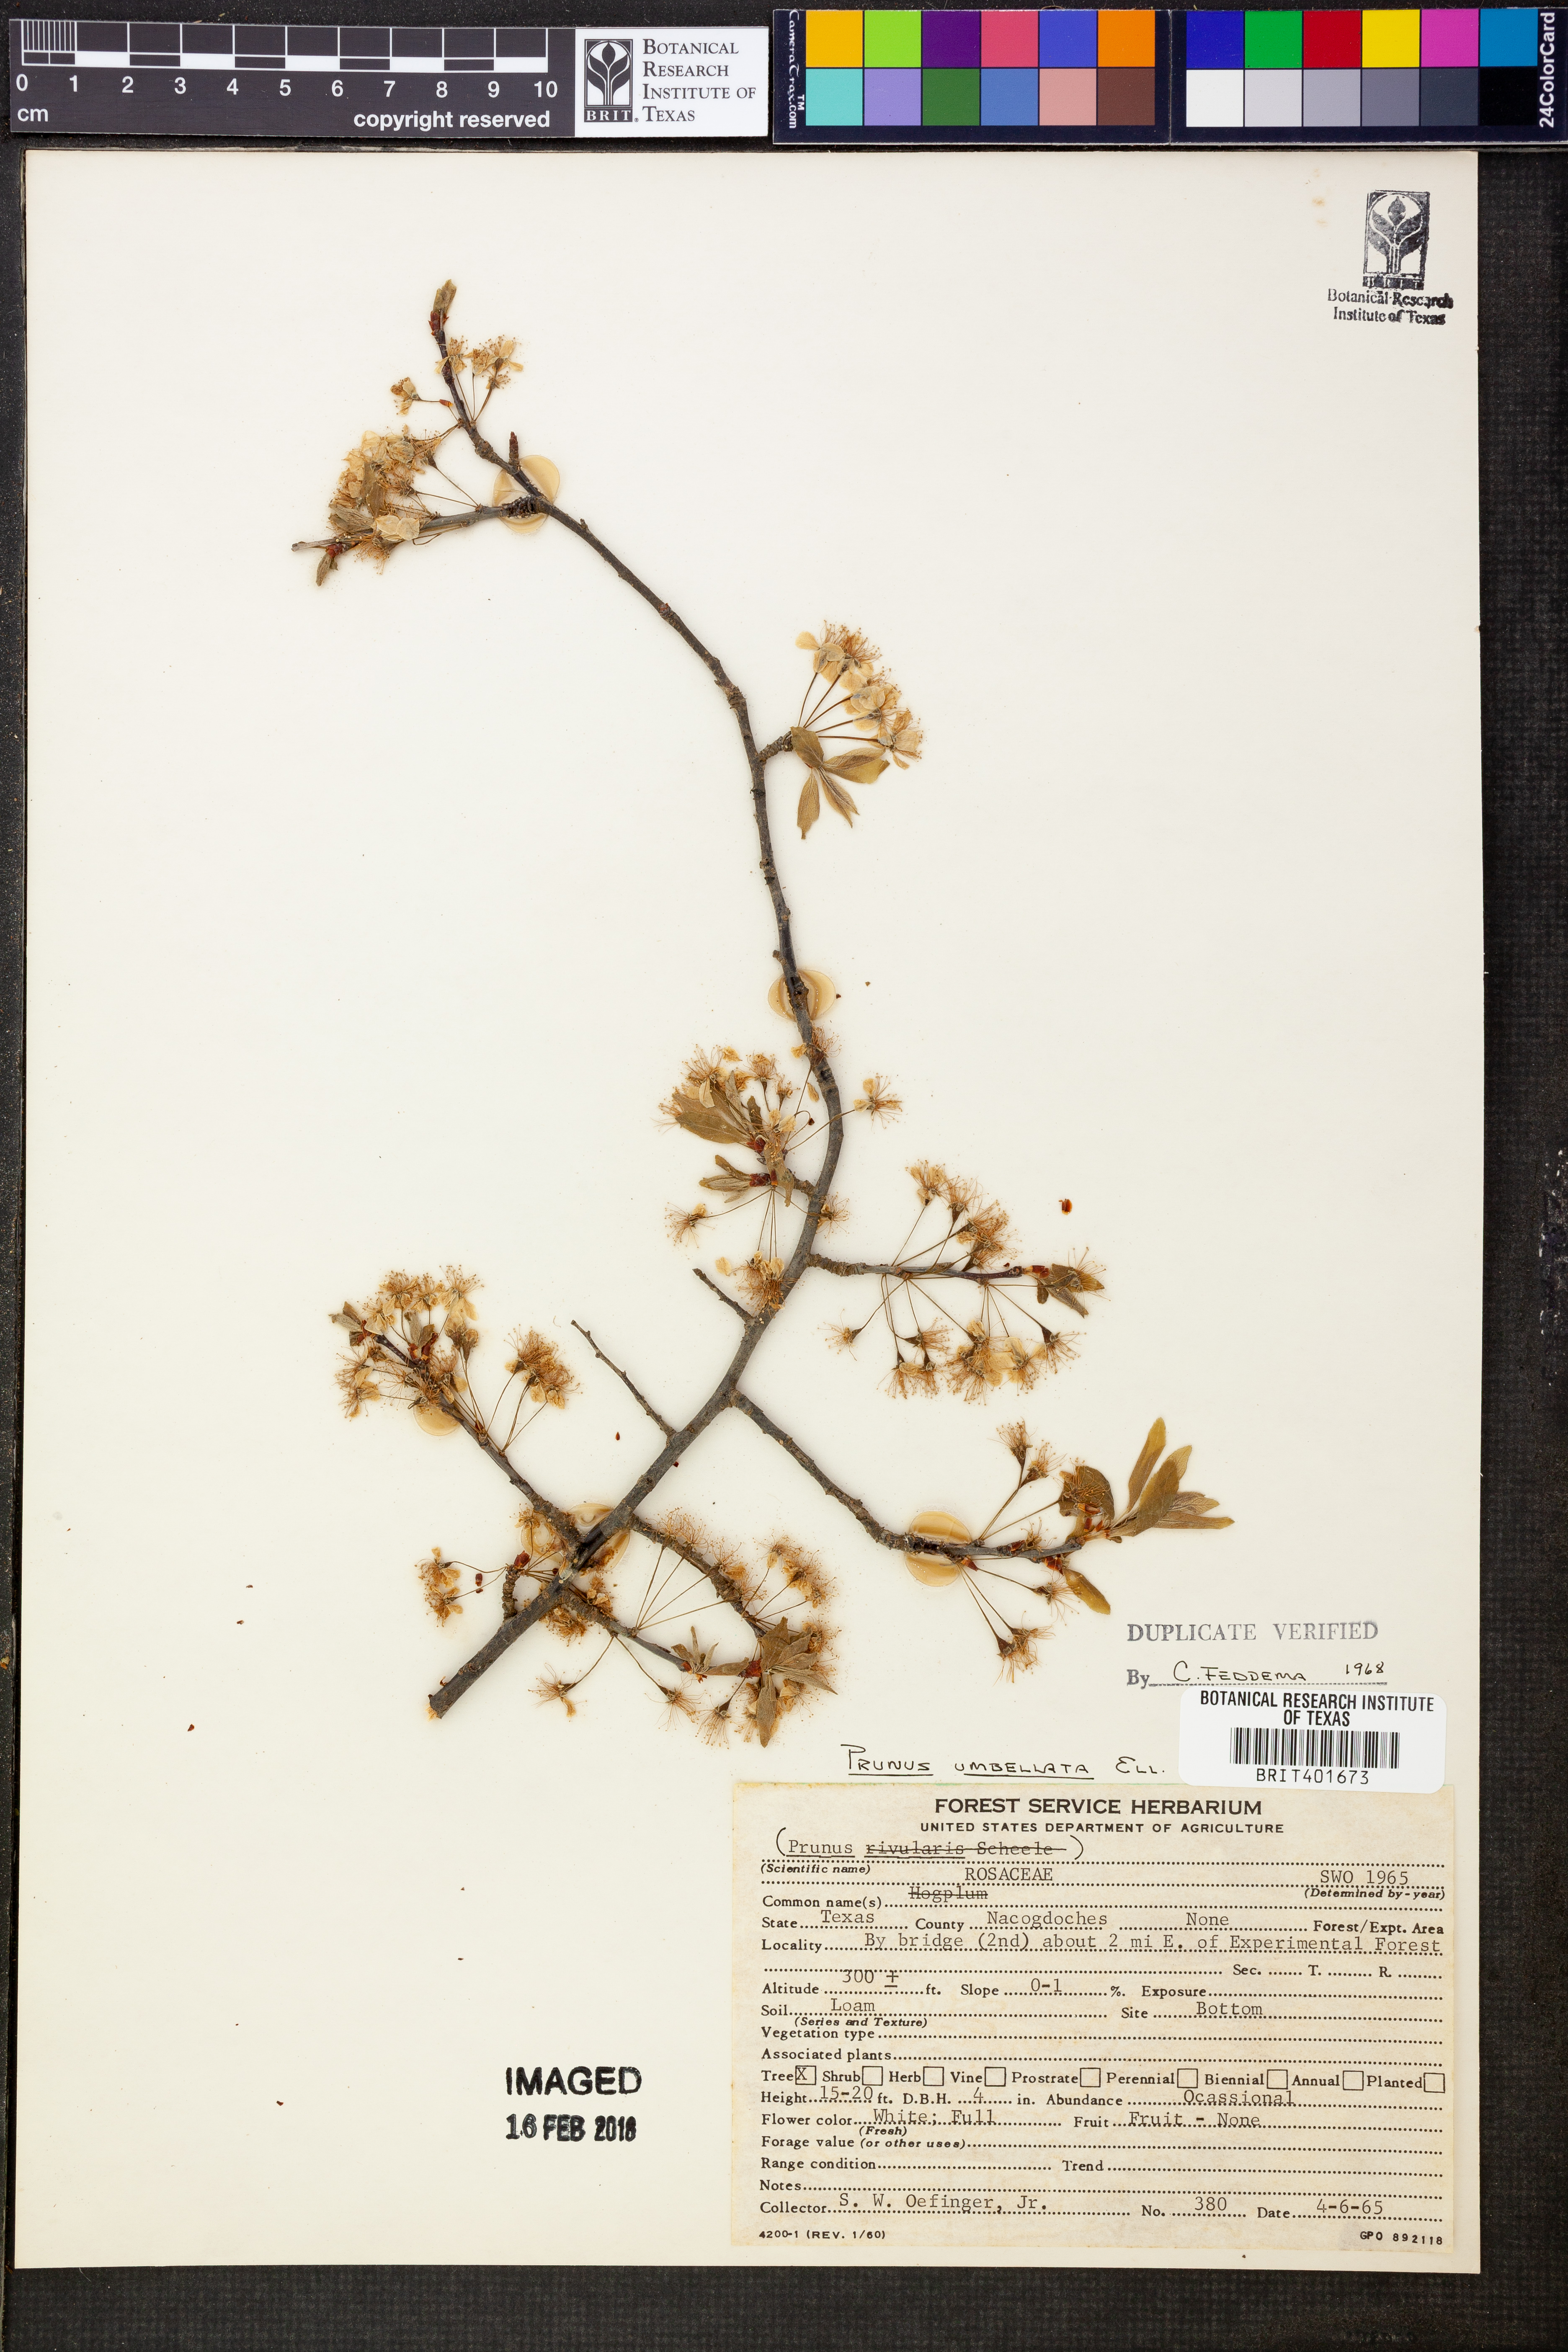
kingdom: Plantae
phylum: Tracheophyta
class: Magnoliopsida
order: Rosales
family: Rosaceae
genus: Prunus
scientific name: Prunus umbellata
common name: Allegheny plum
